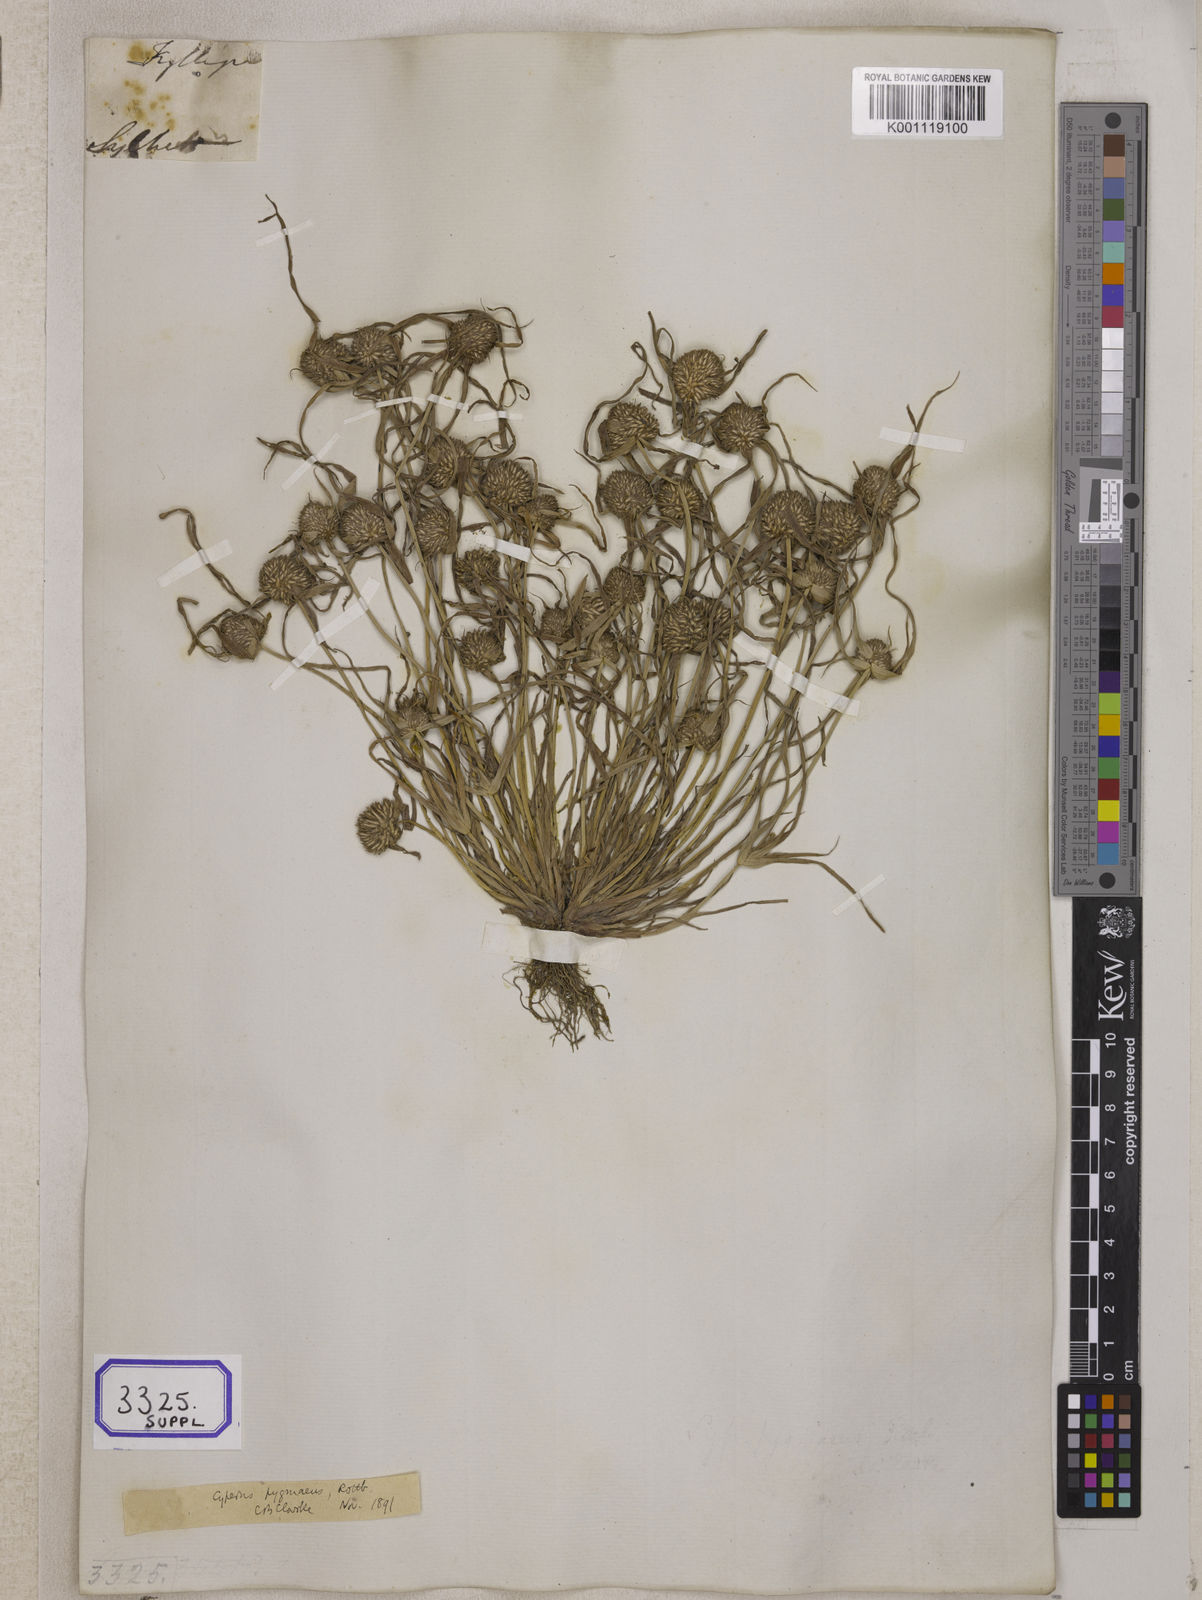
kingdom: Plantae
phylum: Tracheophyta
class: Liliopsida
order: Poales
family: Cyperaceae
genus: Cyperus
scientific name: Cyperus
